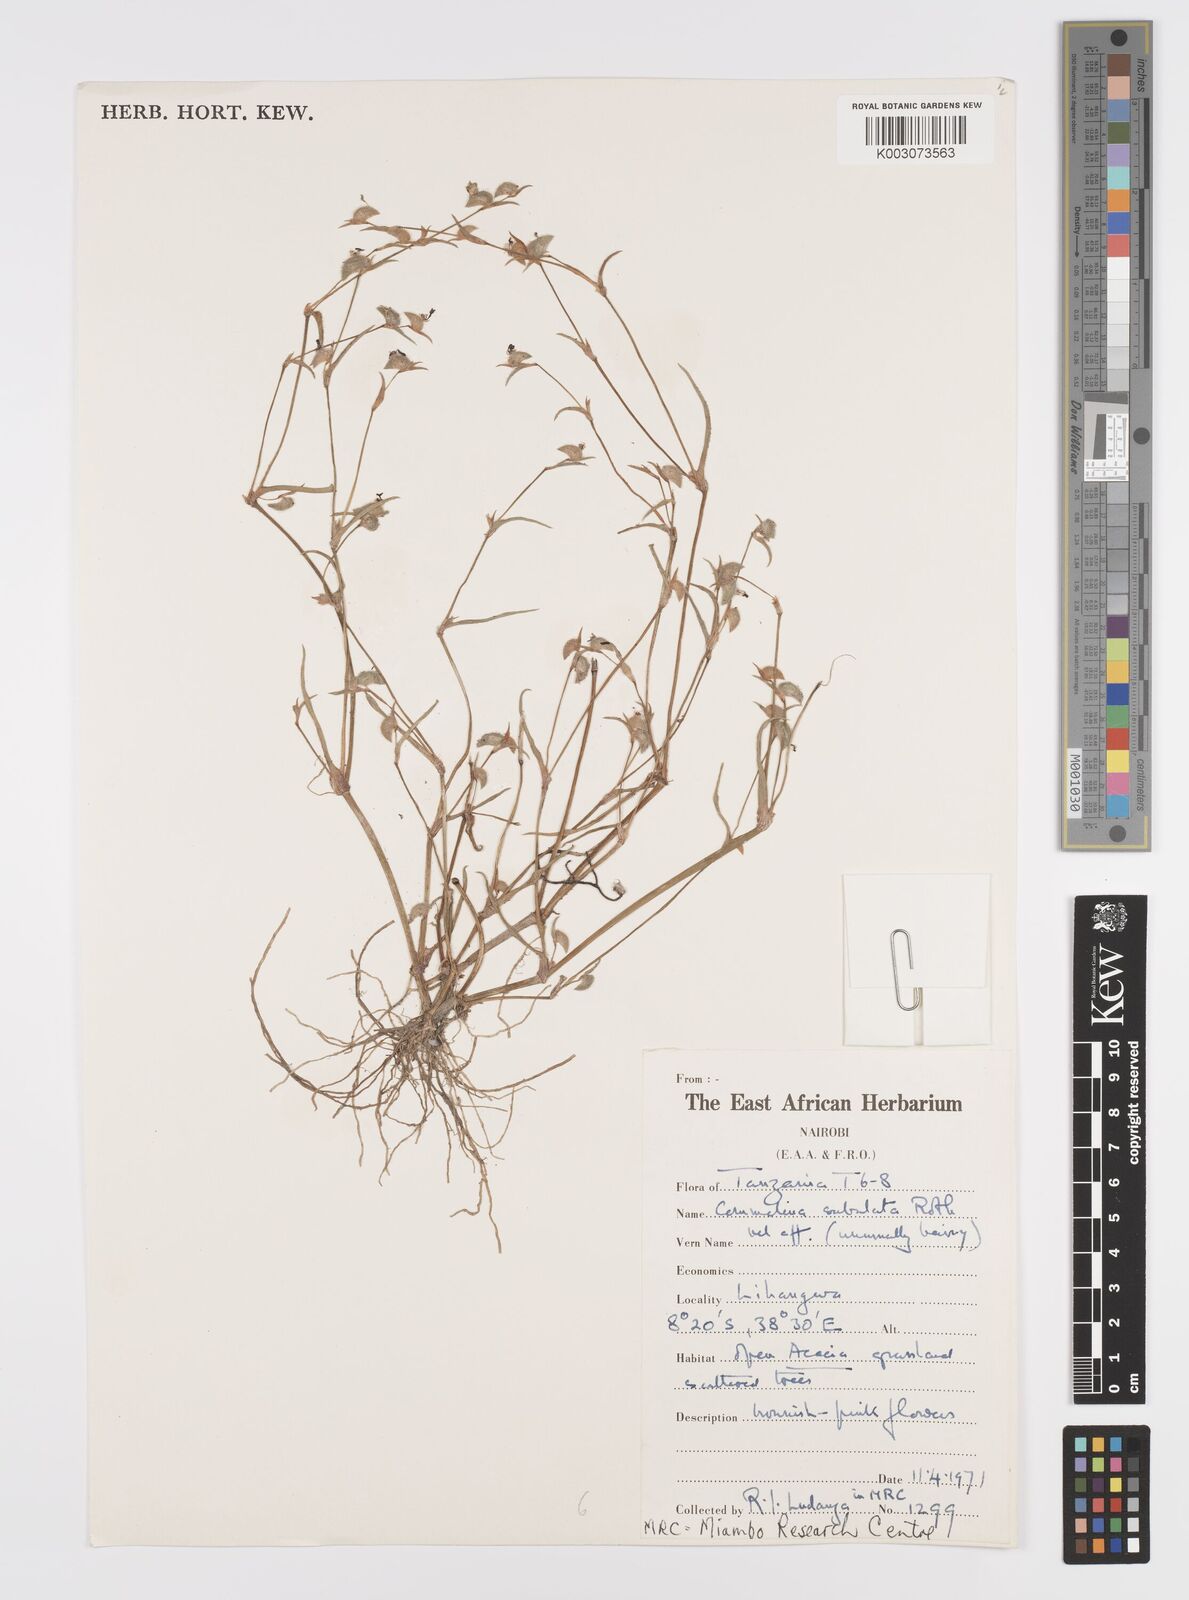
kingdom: Plantae
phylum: Tracheophyta
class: Liliopsida
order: Commelinales
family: Commelinaceae
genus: Commelina
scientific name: Commelina subulata
